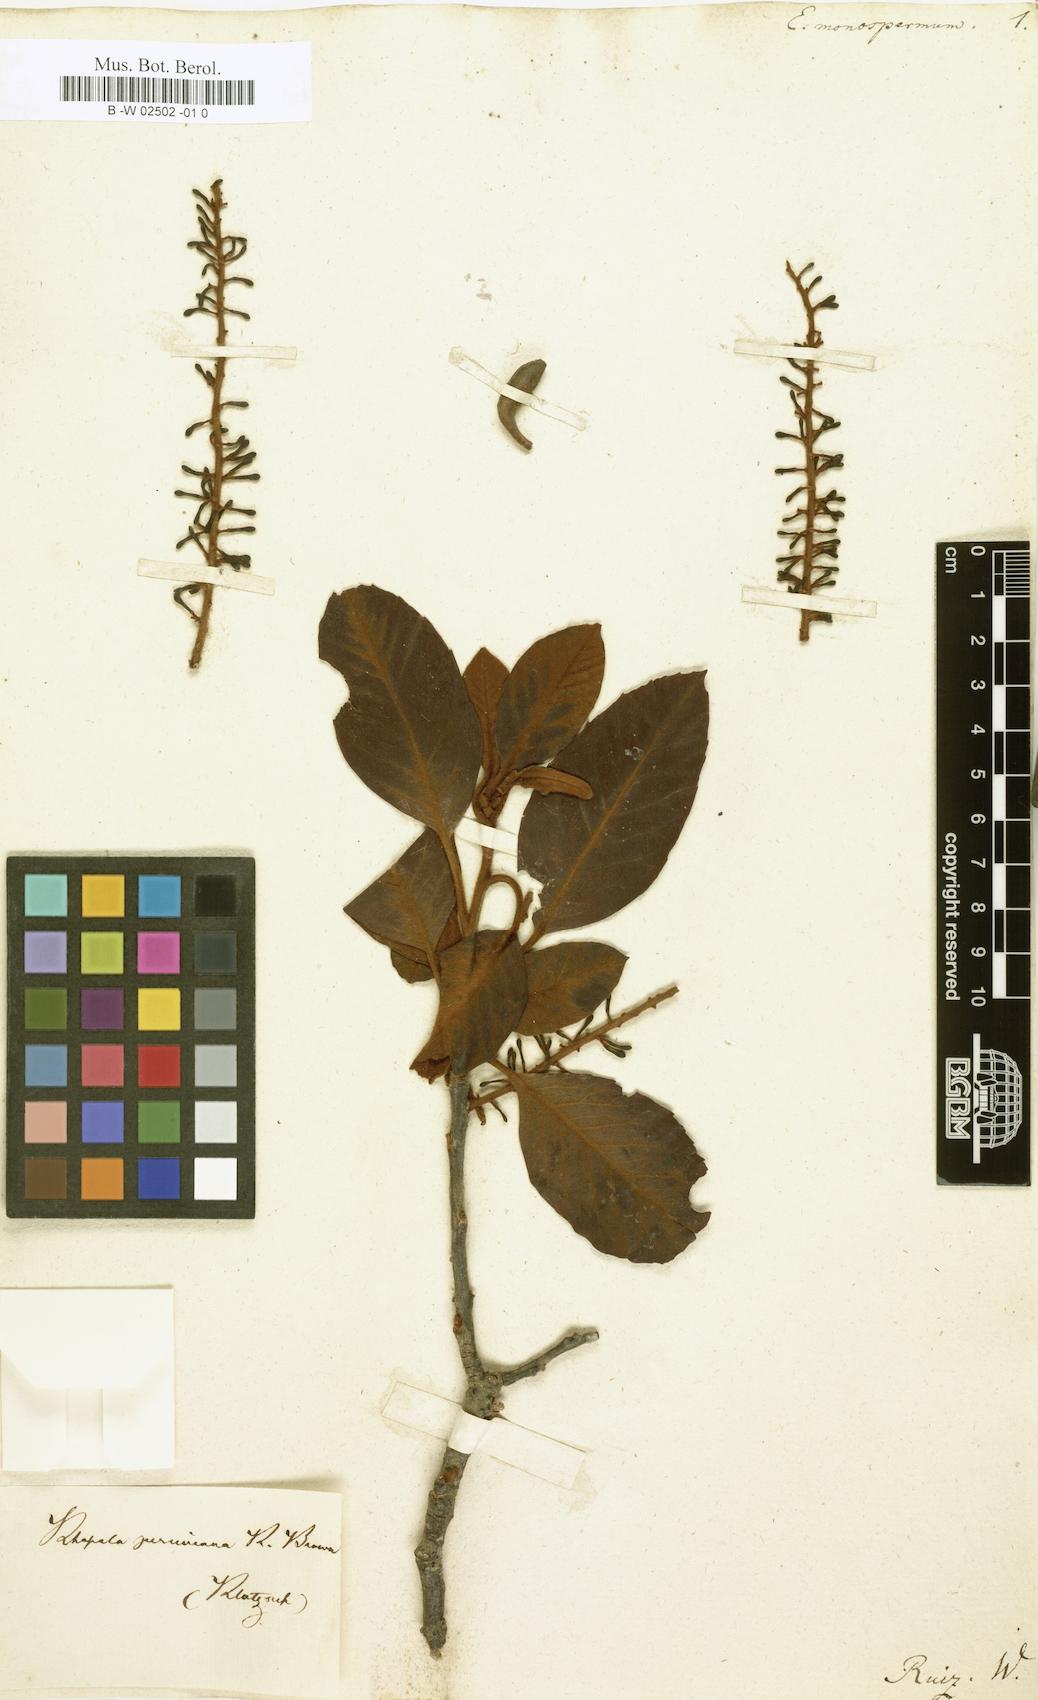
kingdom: Plantae
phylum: Tracheophyta
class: Magnoliopsida
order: Proteales
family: Proteaceae
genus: Roupala
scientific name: Roupala monosperma
